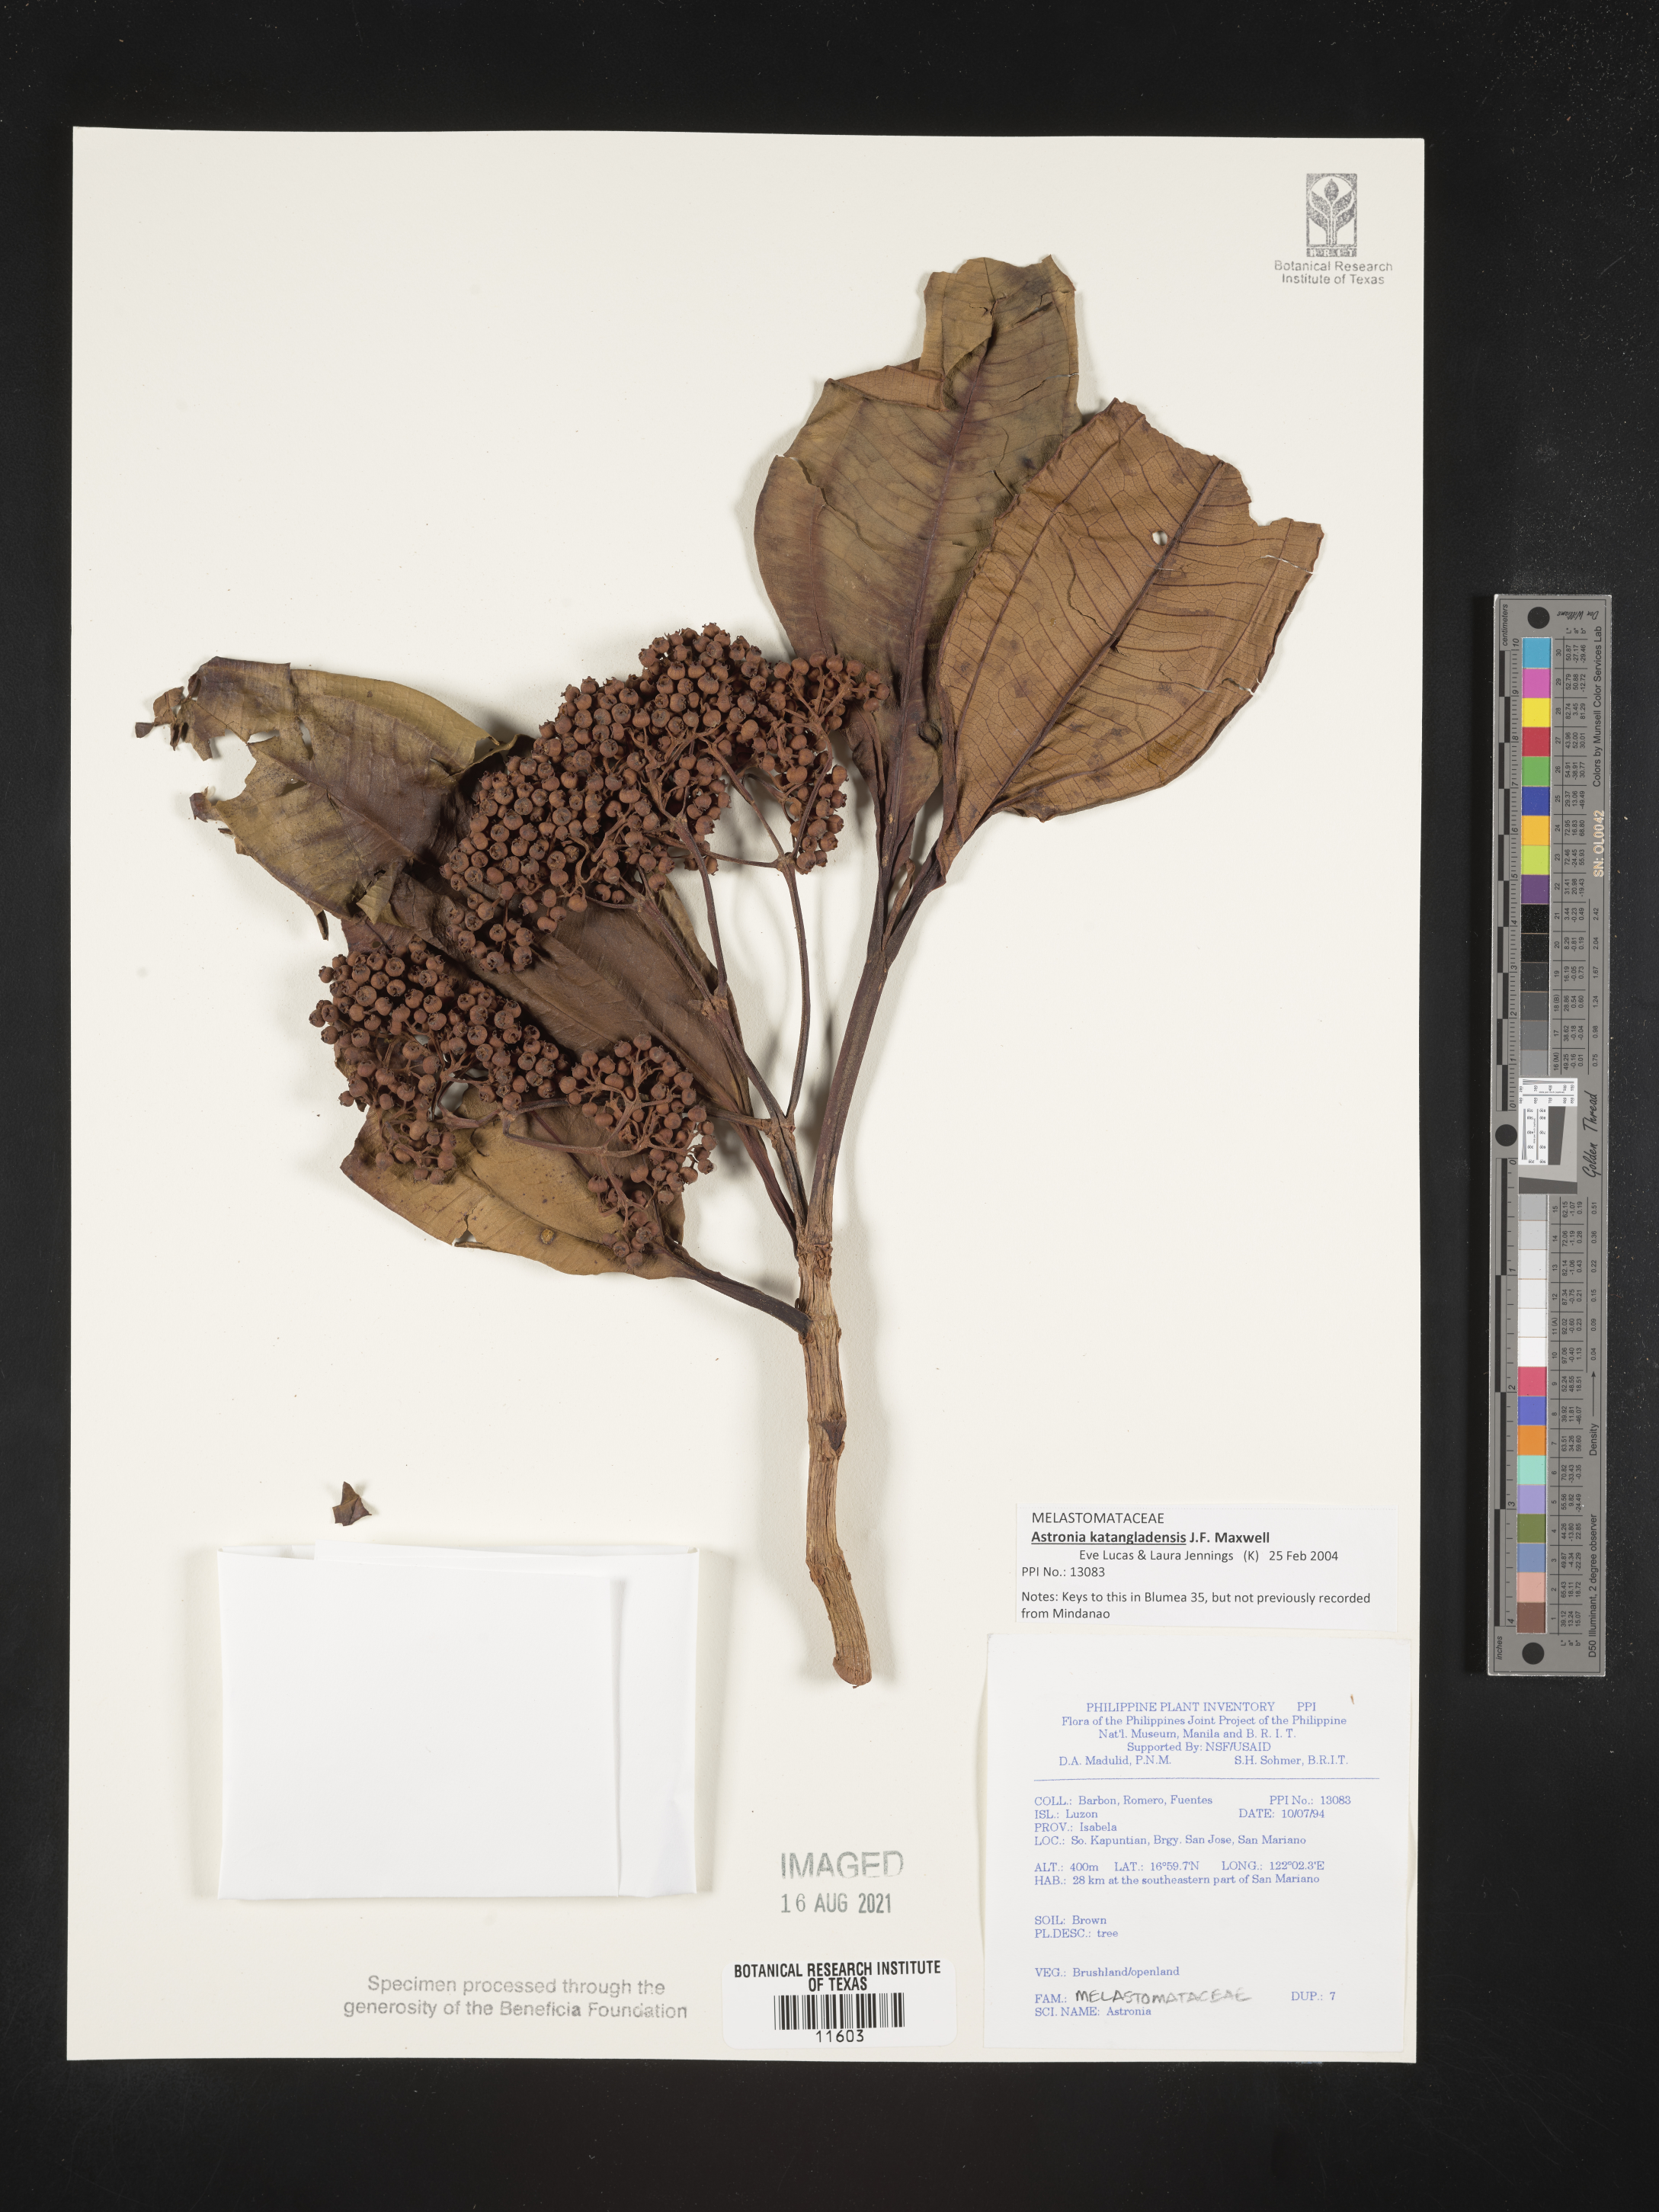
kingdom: Plantae
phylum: Tracheophyta
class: Magnoliopsida
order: Myrtales
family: Melastomataceae
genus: Astronia
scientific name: Astronia katangladensis
